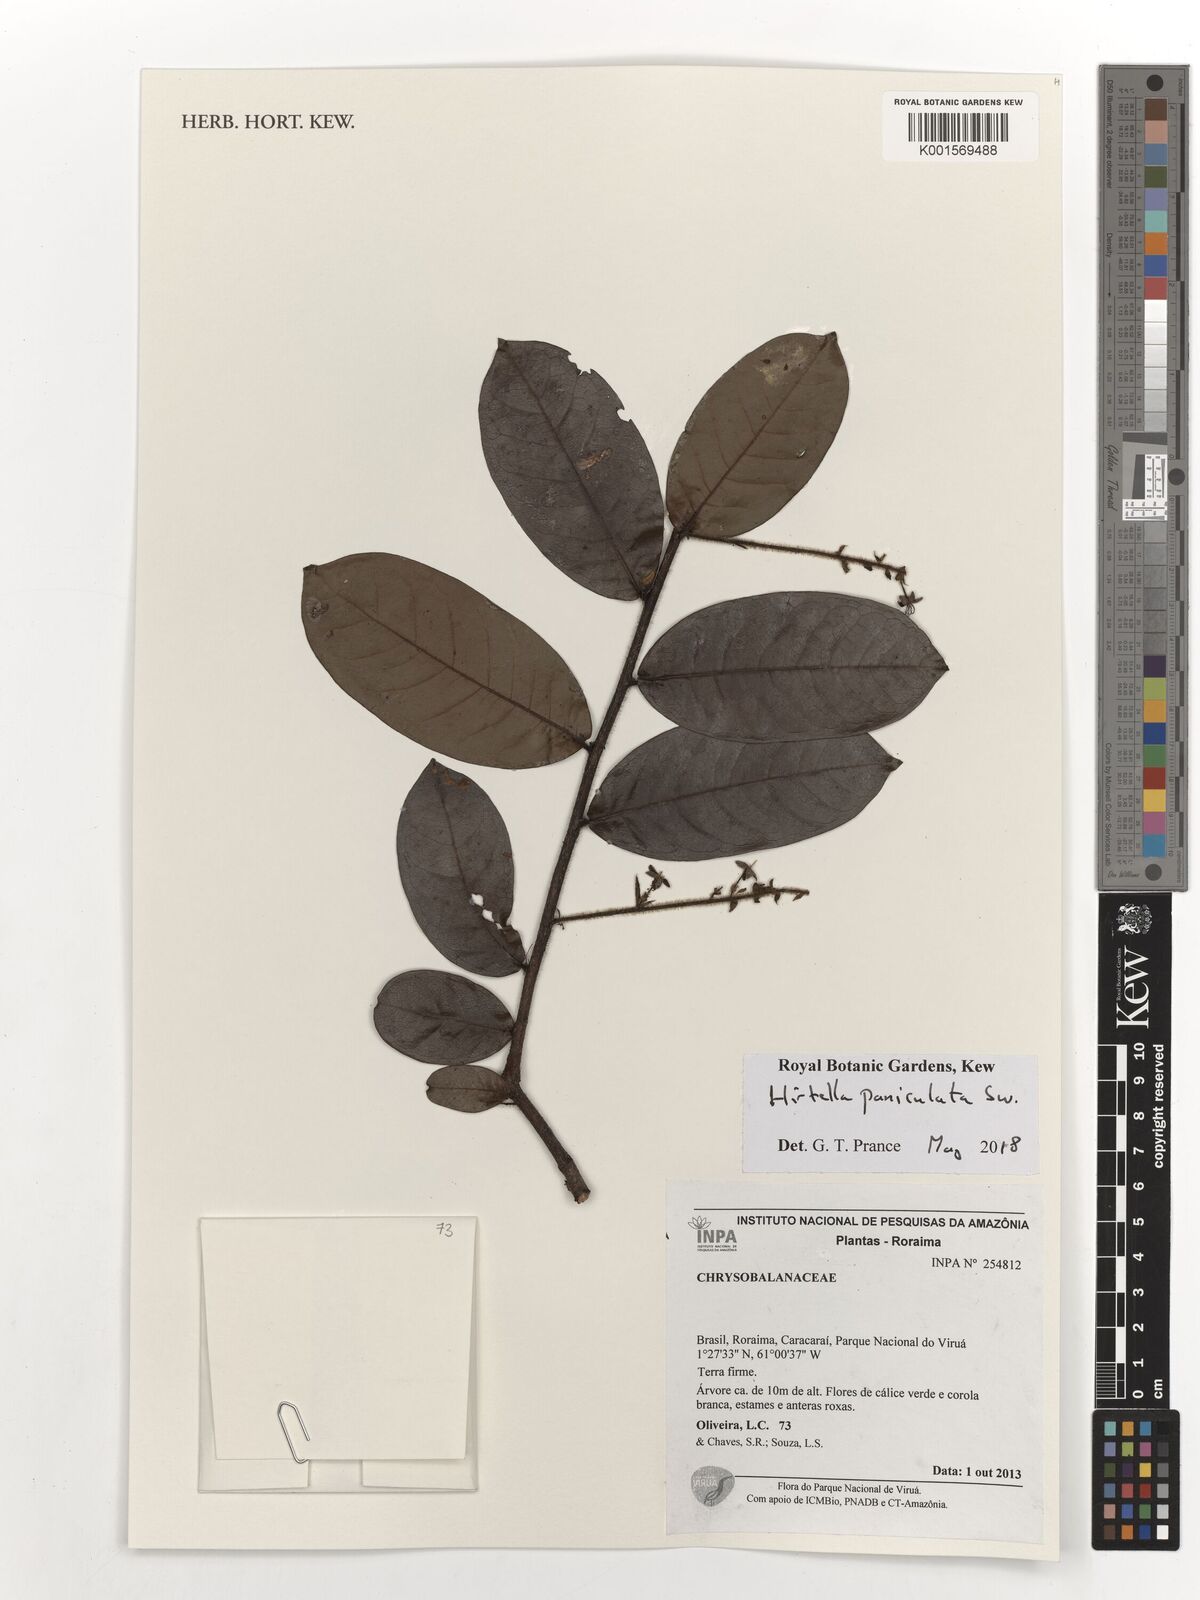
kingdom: Plantae
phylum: Tracheophyta
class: Magnoliopsida
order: Malpighiales
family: Chrysobalanaceae
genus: Hirtella
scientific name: Hirtella paniculata
